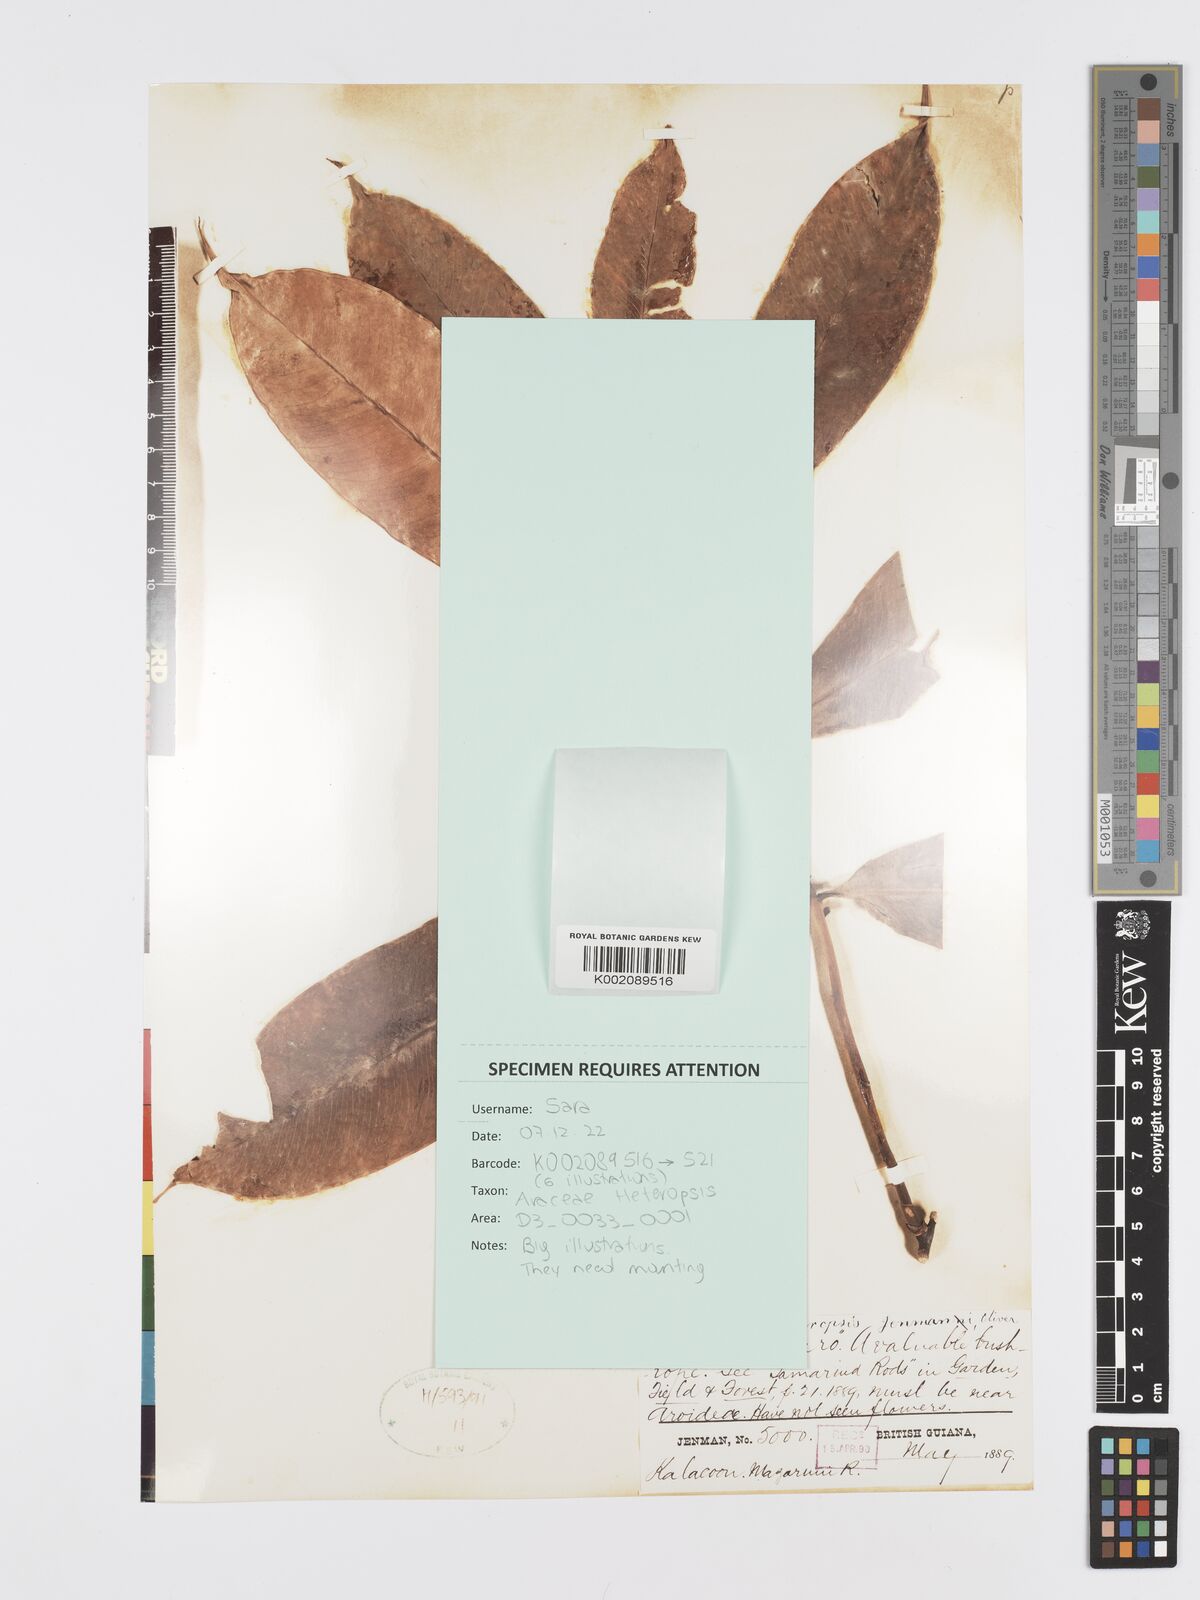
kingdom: Plantae
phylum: Tracheophyta
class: Liliopsida
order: Alismatales
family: Araceae
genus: Heteropsis
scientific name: Heteropsis flexuosa
